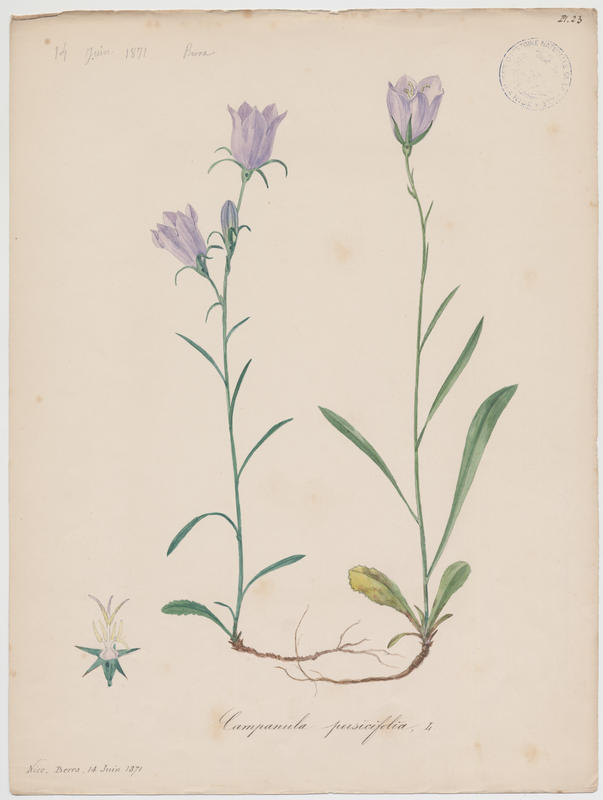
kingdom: Plantae
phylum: Tracheophyta
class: Magnoliopsida
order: Asterales
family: Campanulaceae
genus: Campanula
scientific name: Campanula persicifolia
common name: Peach-leaved bellflower
